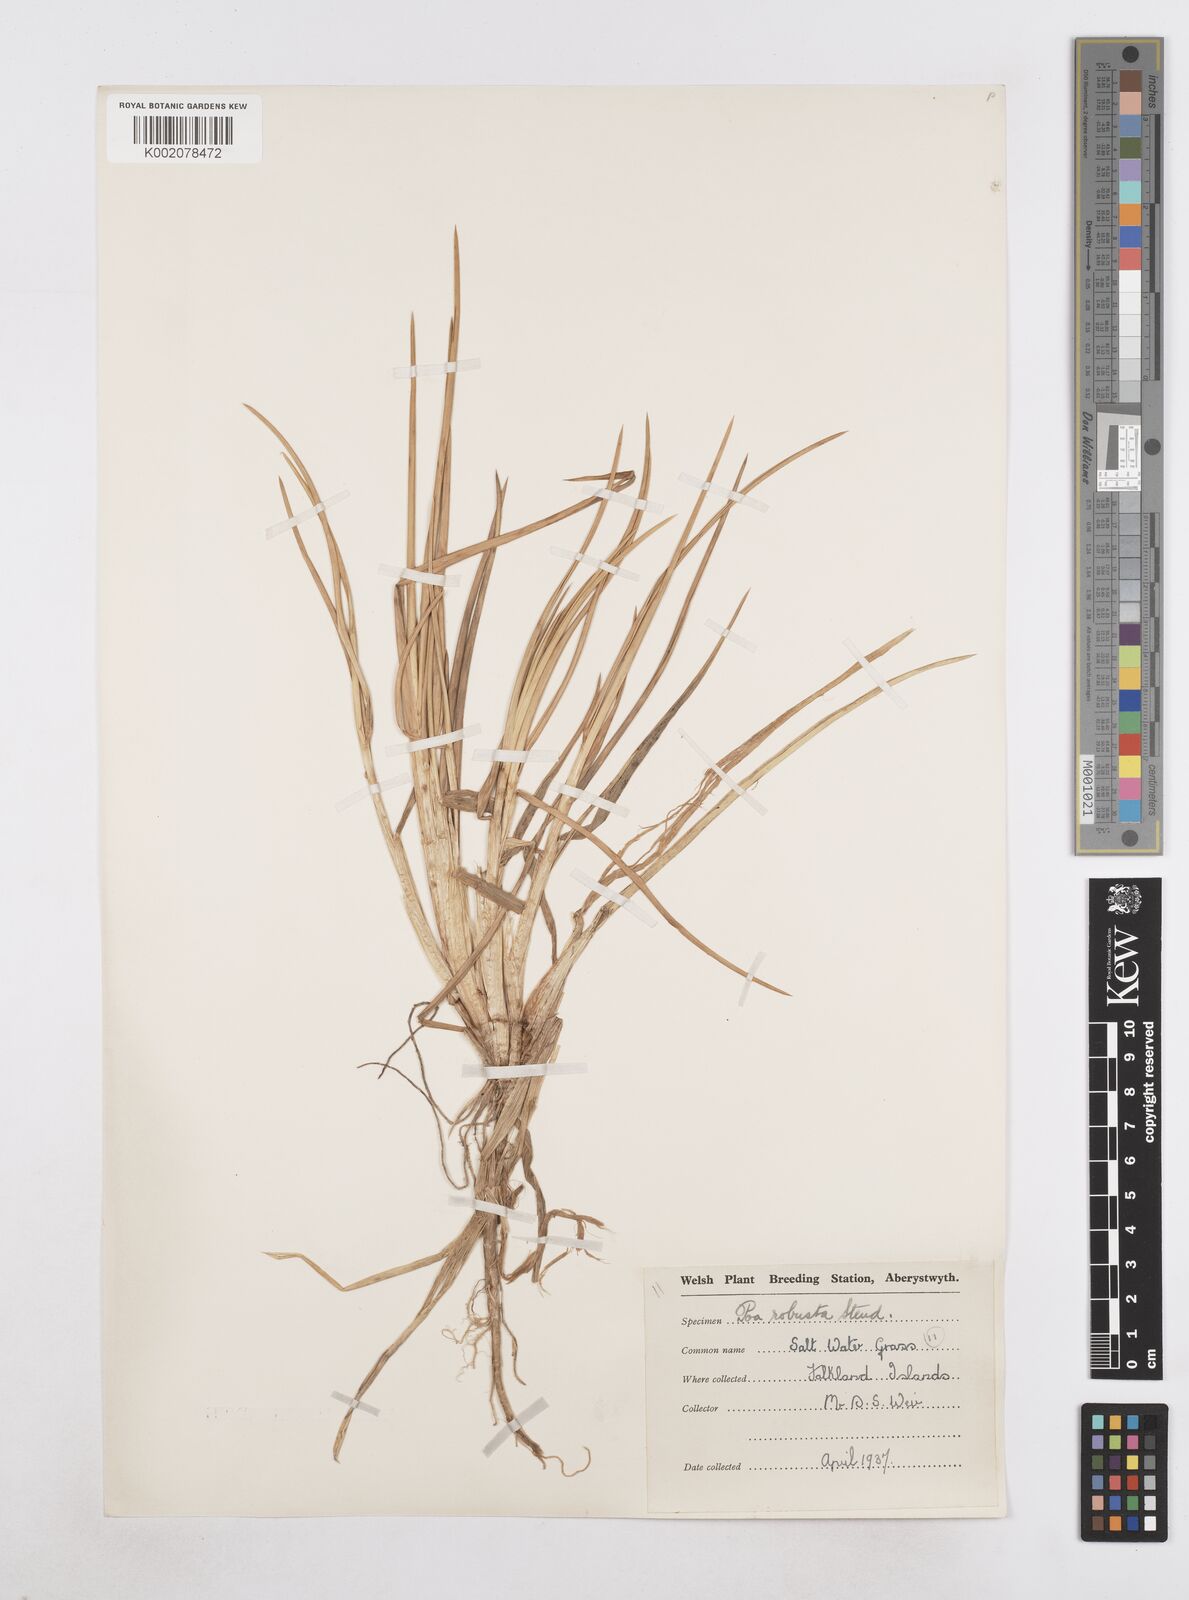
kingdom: Plantae
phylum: Tracheophyta
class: Liliopsida
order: Poales
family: Poaceae
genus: Nicoraepoa
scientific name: Nicoraepoa chonotica
